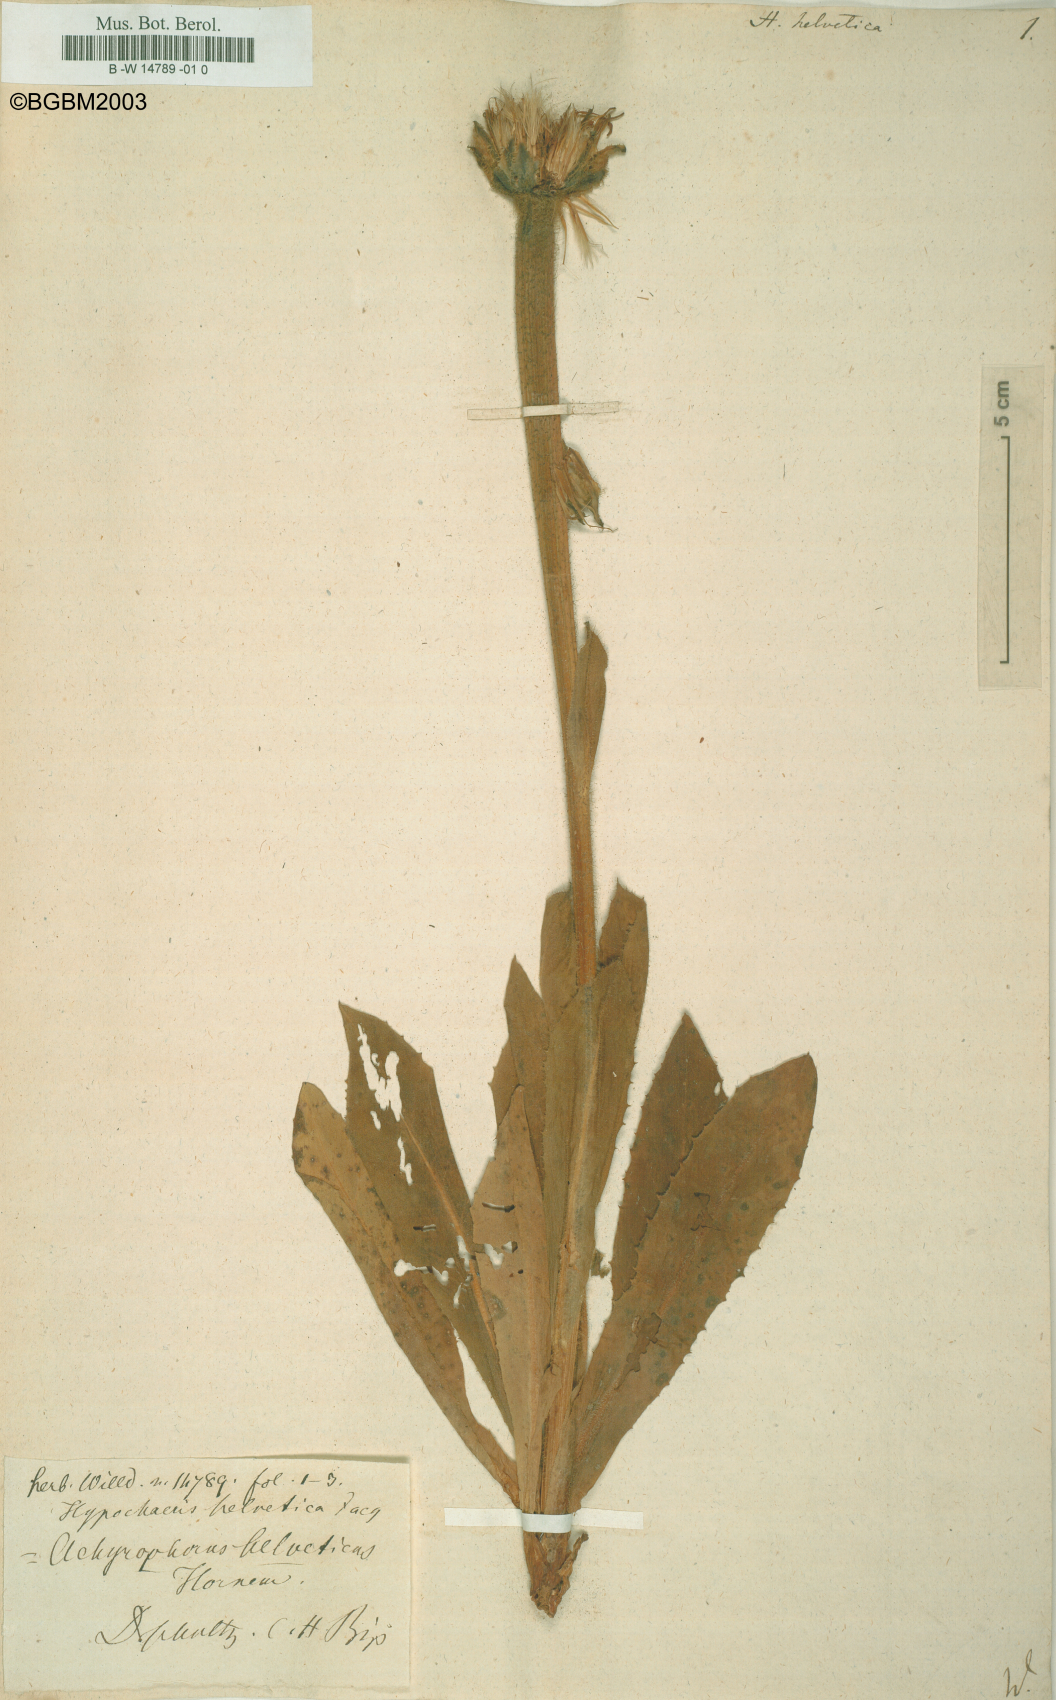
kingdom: Plantae
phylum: Tracheophyta
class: Magnoliopsida
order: Asterales
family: Asteraceae
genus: Trommsdorffia
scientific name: Trommsdorffia uniflora
